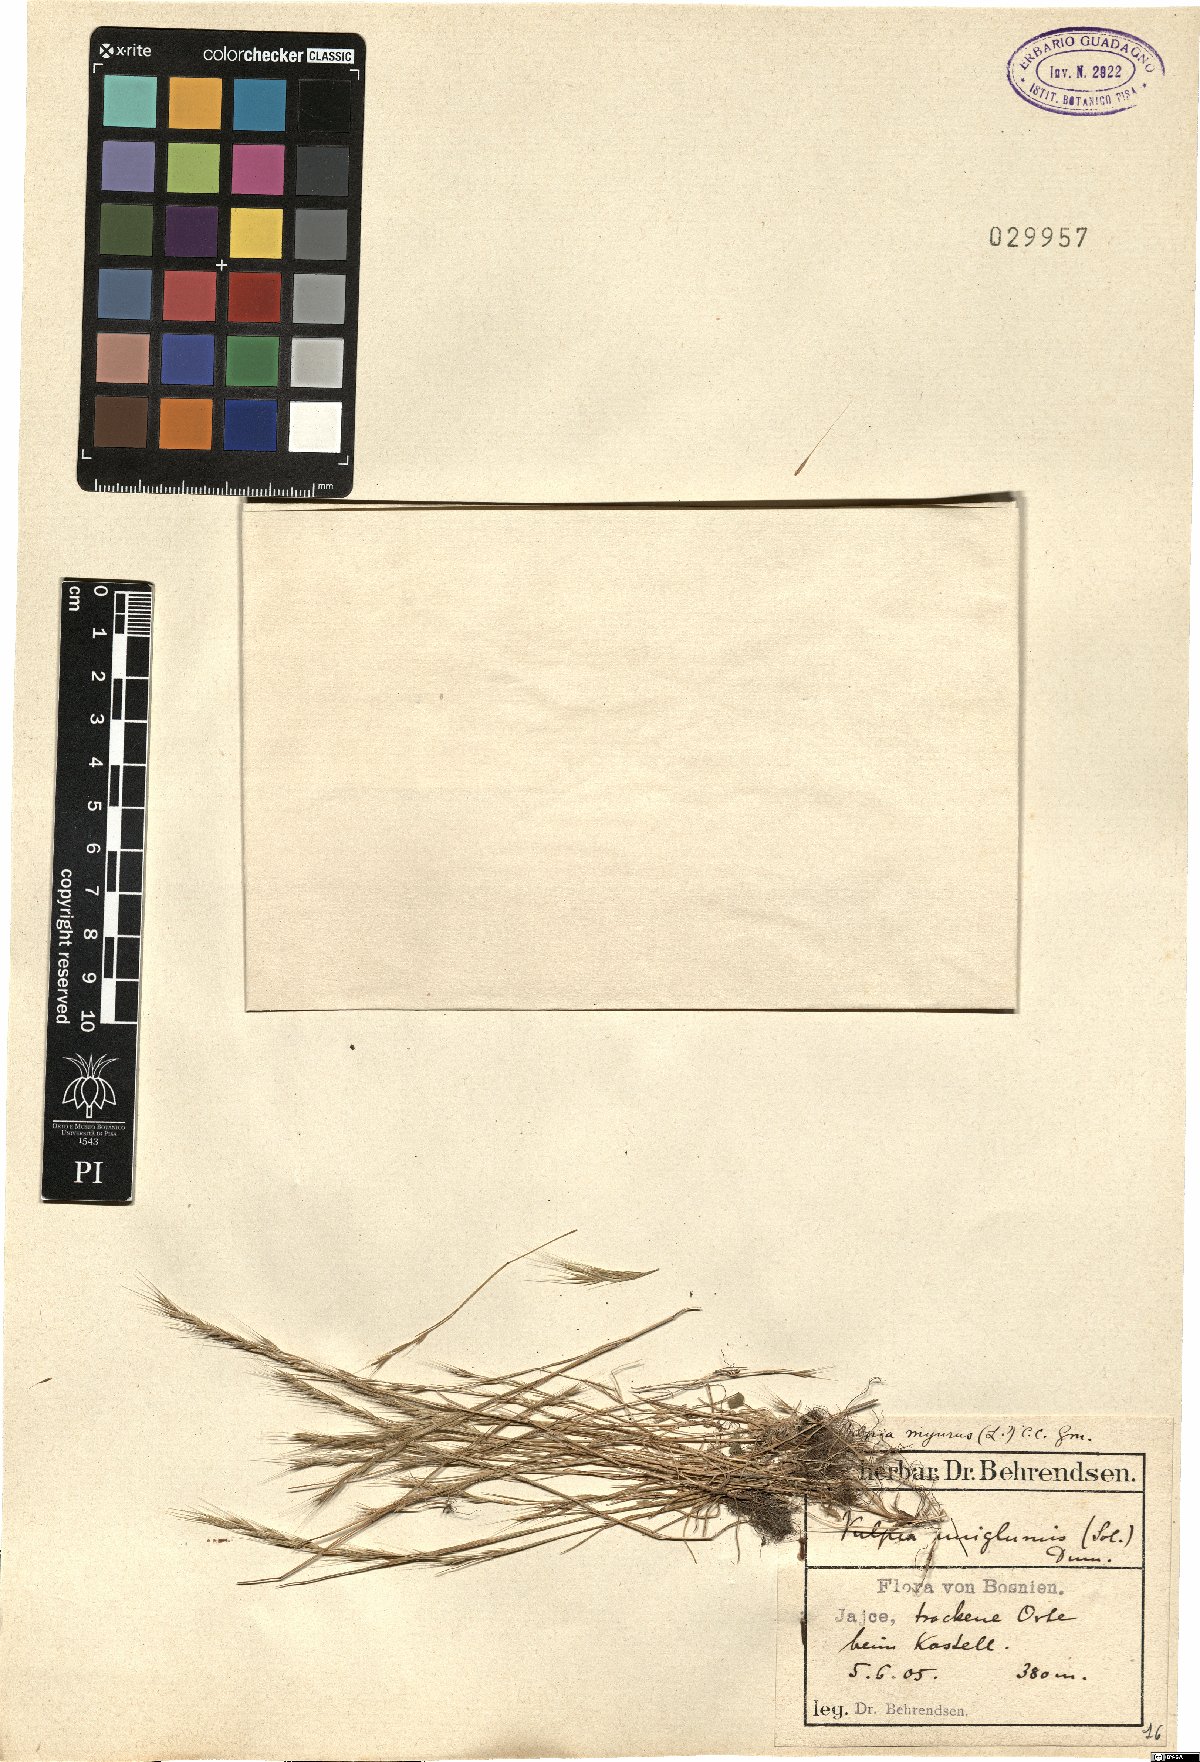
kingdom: Plantae
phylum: Tracheophyta
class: Liliopsida
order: Poales
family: Poaceae
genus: Festuca
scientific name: Festuca bromoides
